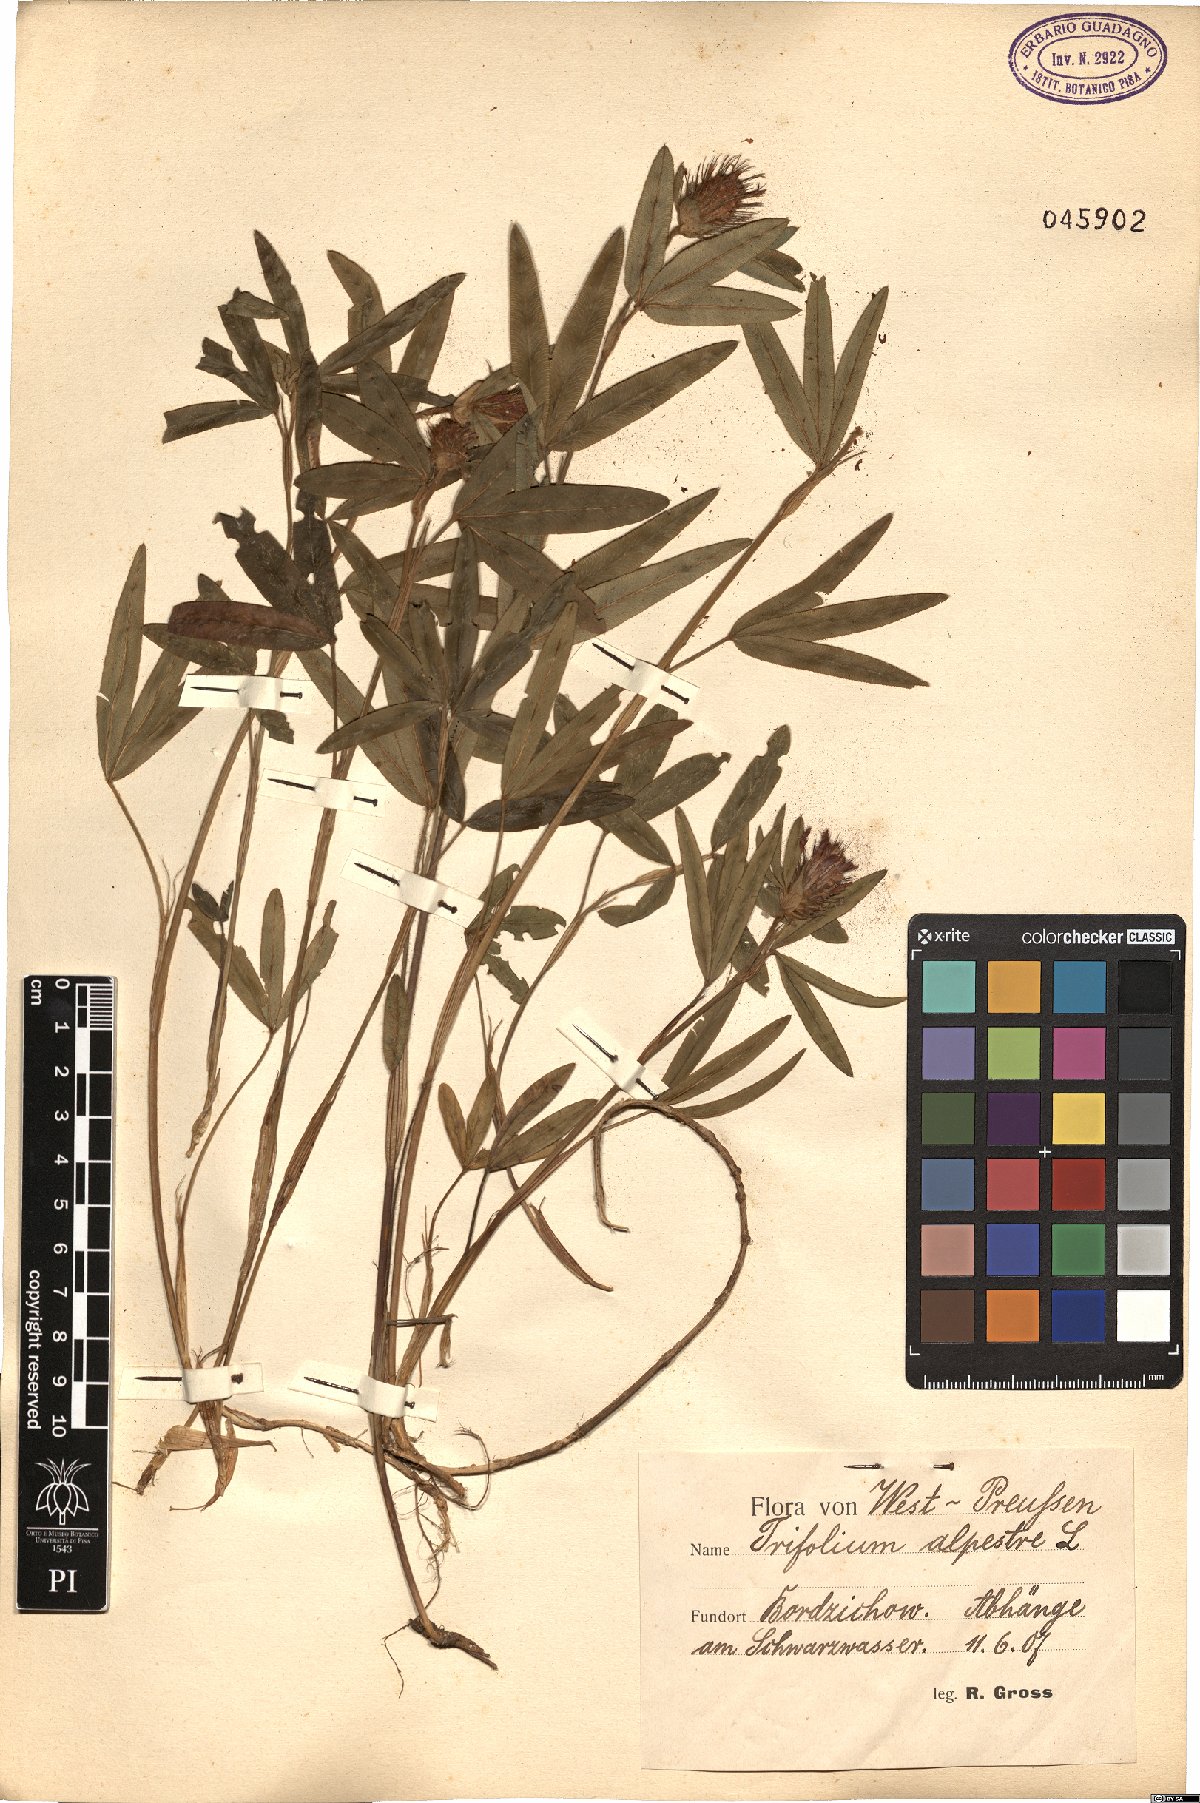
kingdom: Plantae
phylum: Tracheophyta
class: Magnoliopsida
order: Fabales
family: Fabaceae
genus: Trifolium
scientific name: Trifolium alpestre
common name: Owl-head clover
